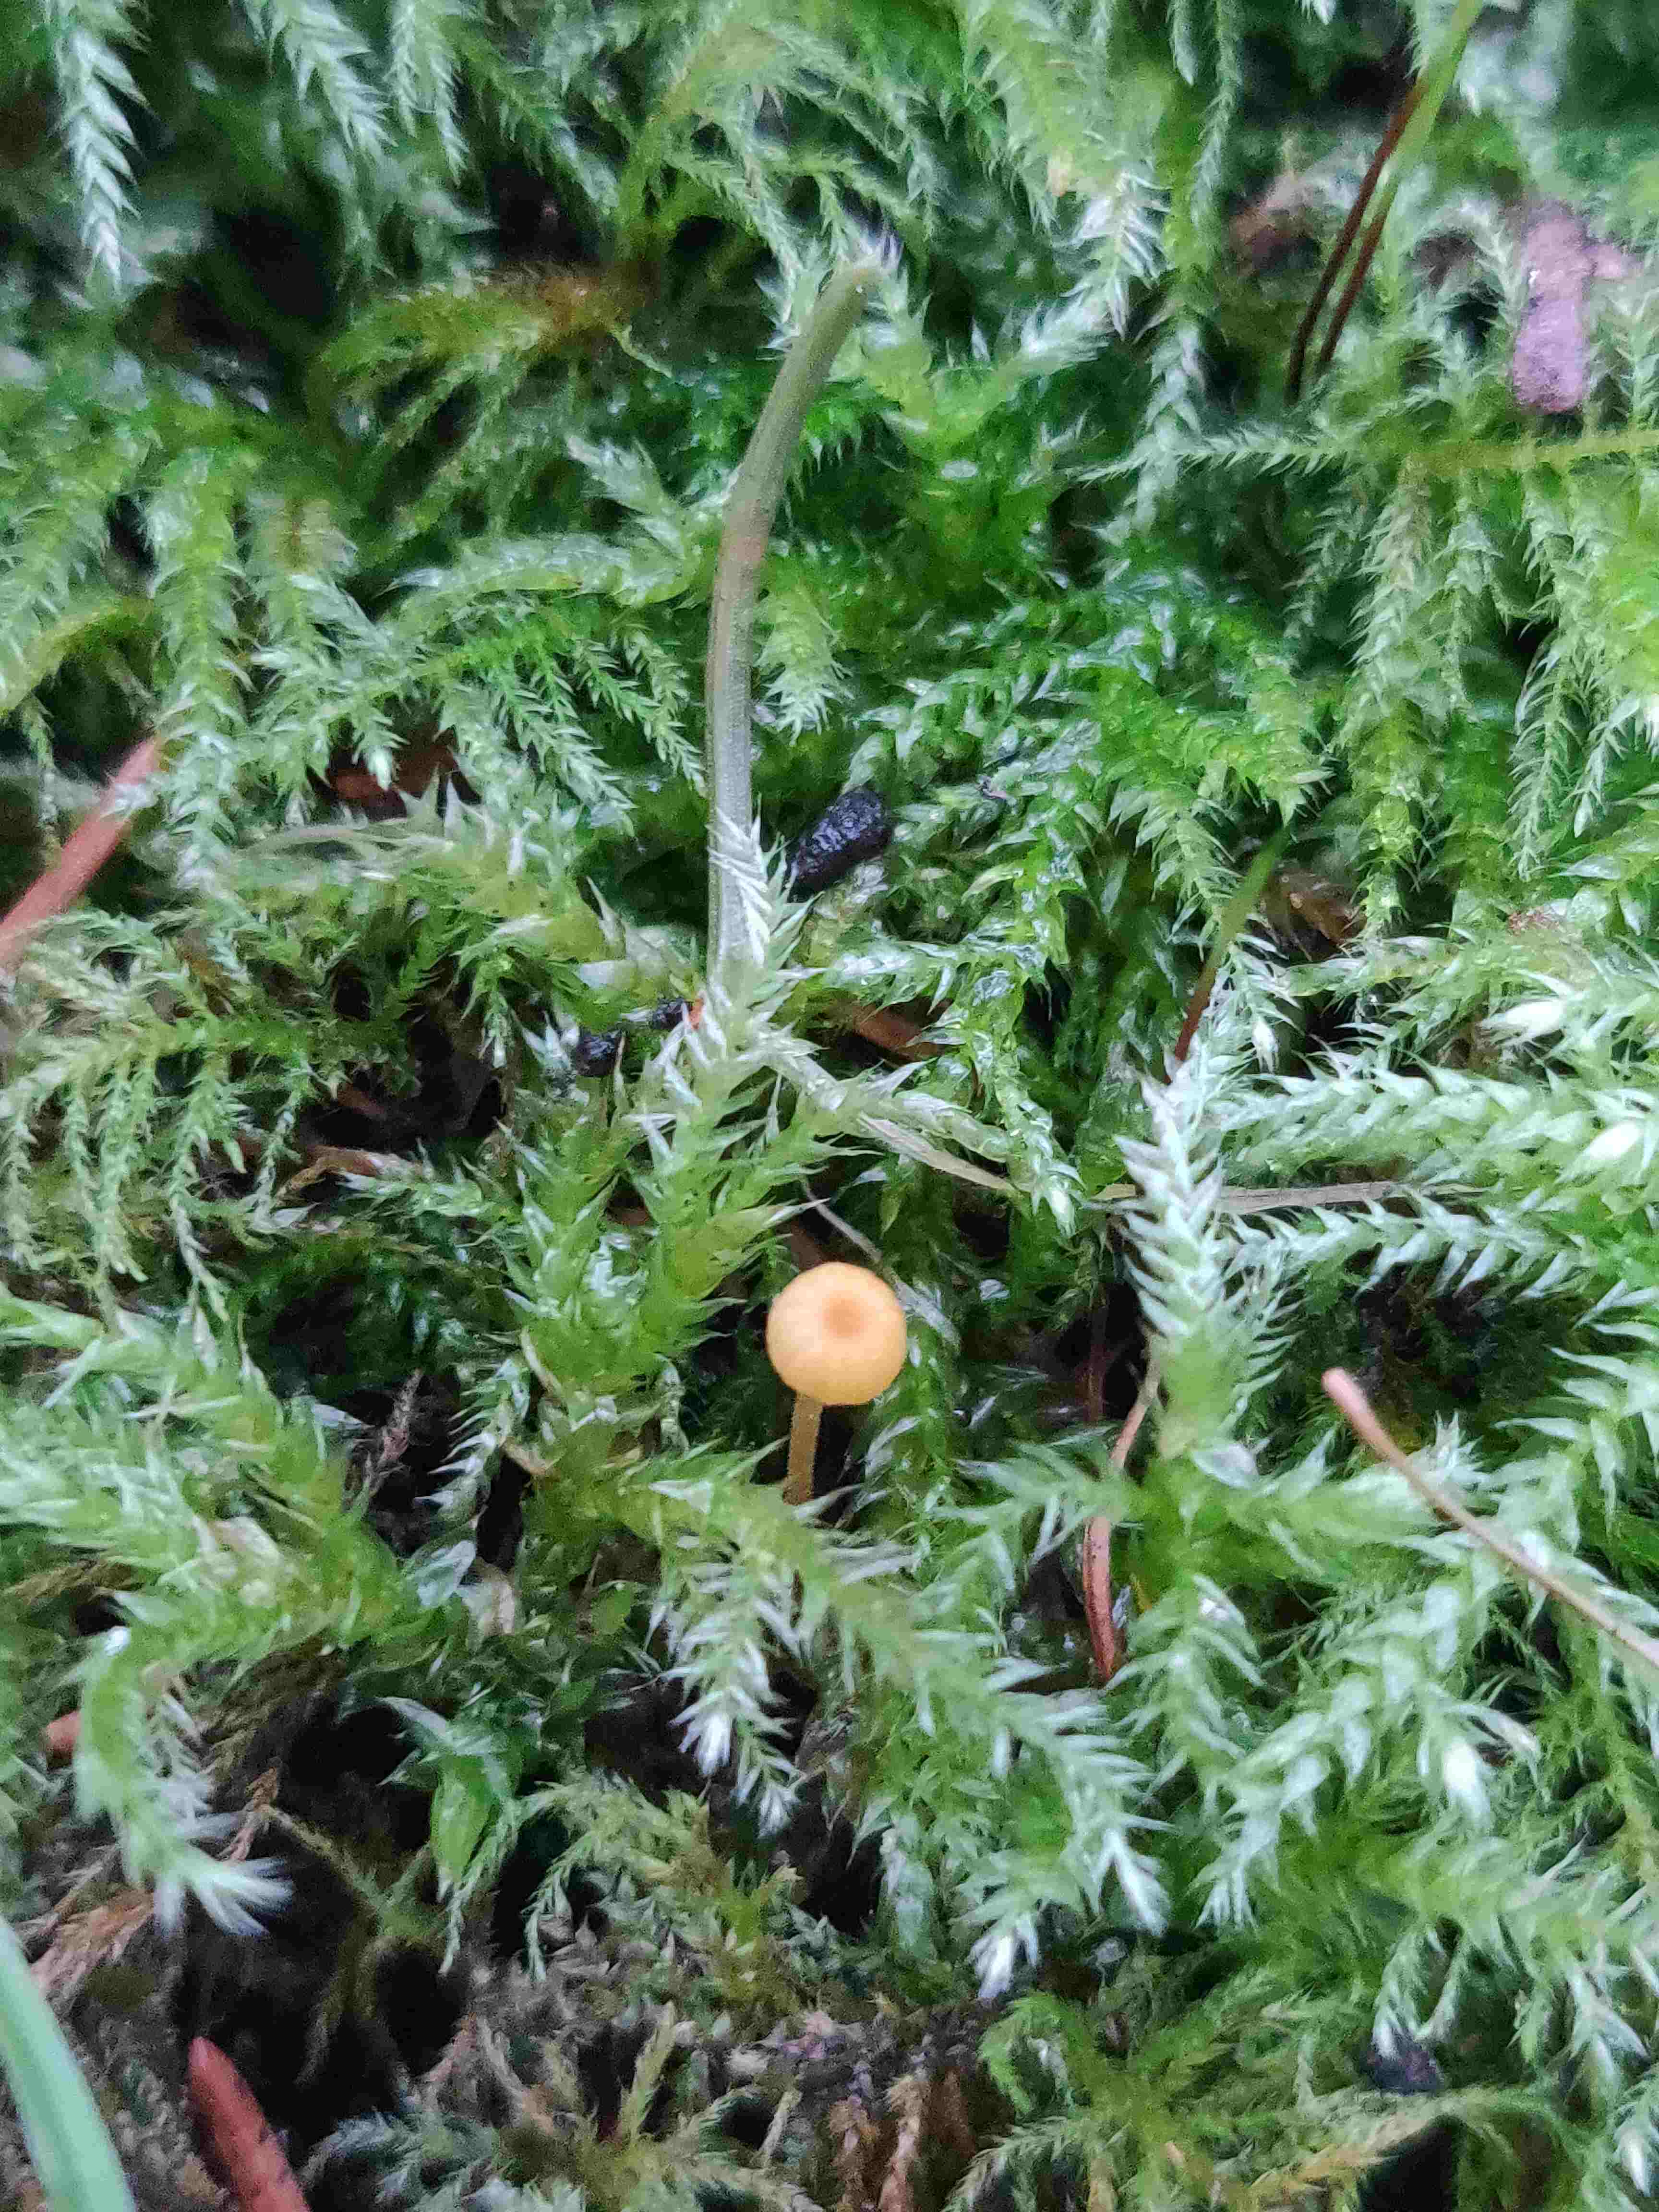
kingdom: Fungi
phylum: Basidiomycota
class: Agaricomycetes
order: Hymenochaetales
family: Rickenellaceae
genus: Rickenella
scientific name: Rickenella fibula
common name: orange mosnavlehat
